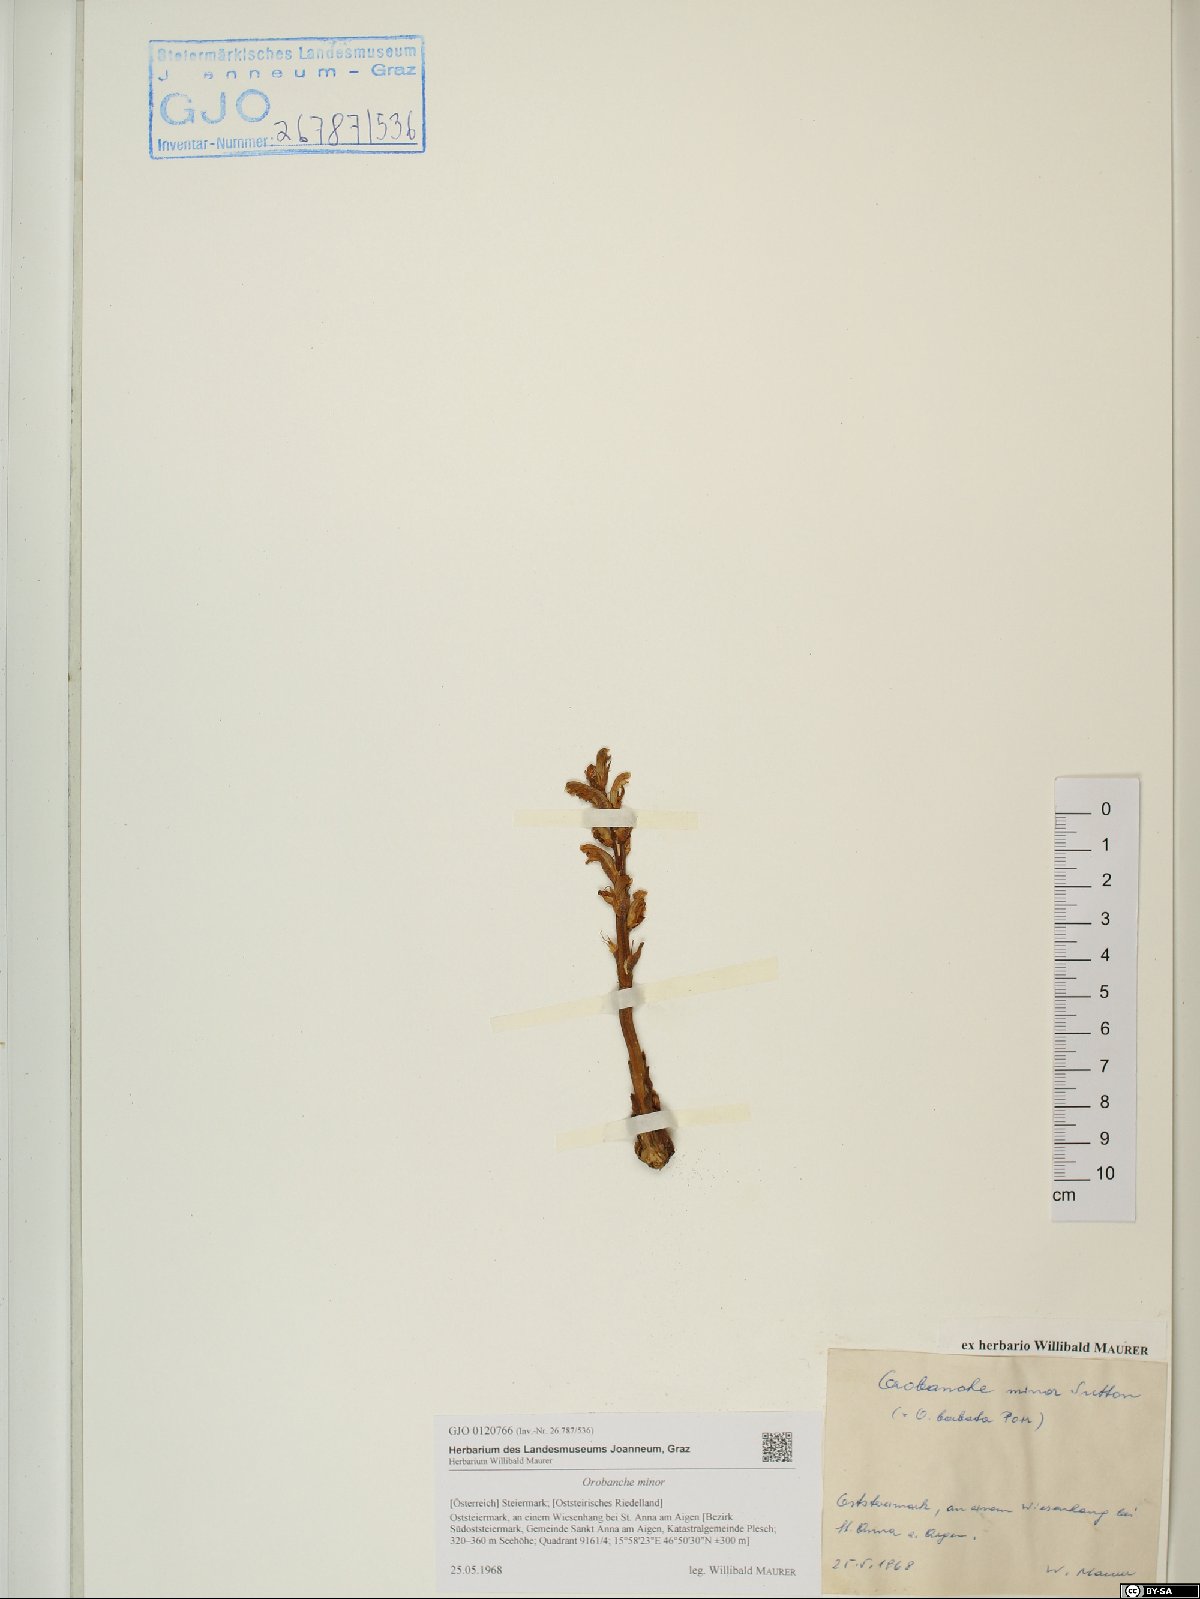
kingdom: Plantae
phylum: Tracheophyta
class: Magnoliopsida
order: Lamiales
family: Orobanchaceae
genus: Orobanche
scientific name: Orobanche minor
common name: Common broomrape
